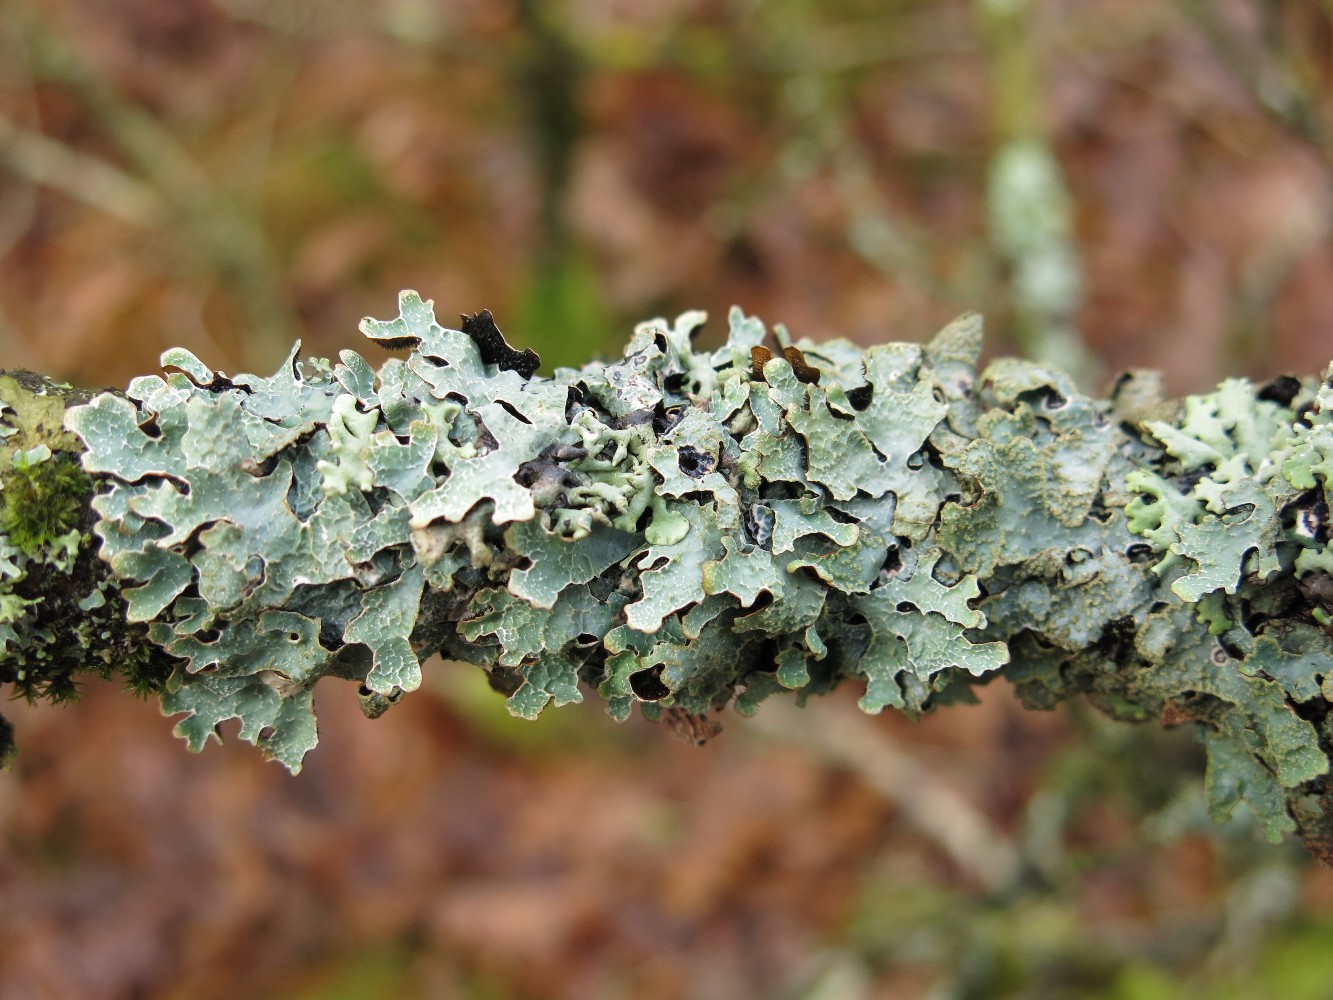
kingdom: Fungi
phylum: Ascomycota
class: Lecanoromycetes
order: Lecanorales
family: Parmeliaceae
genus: Parmelia
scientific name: Parmelia sulcata
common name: rynket skållav
